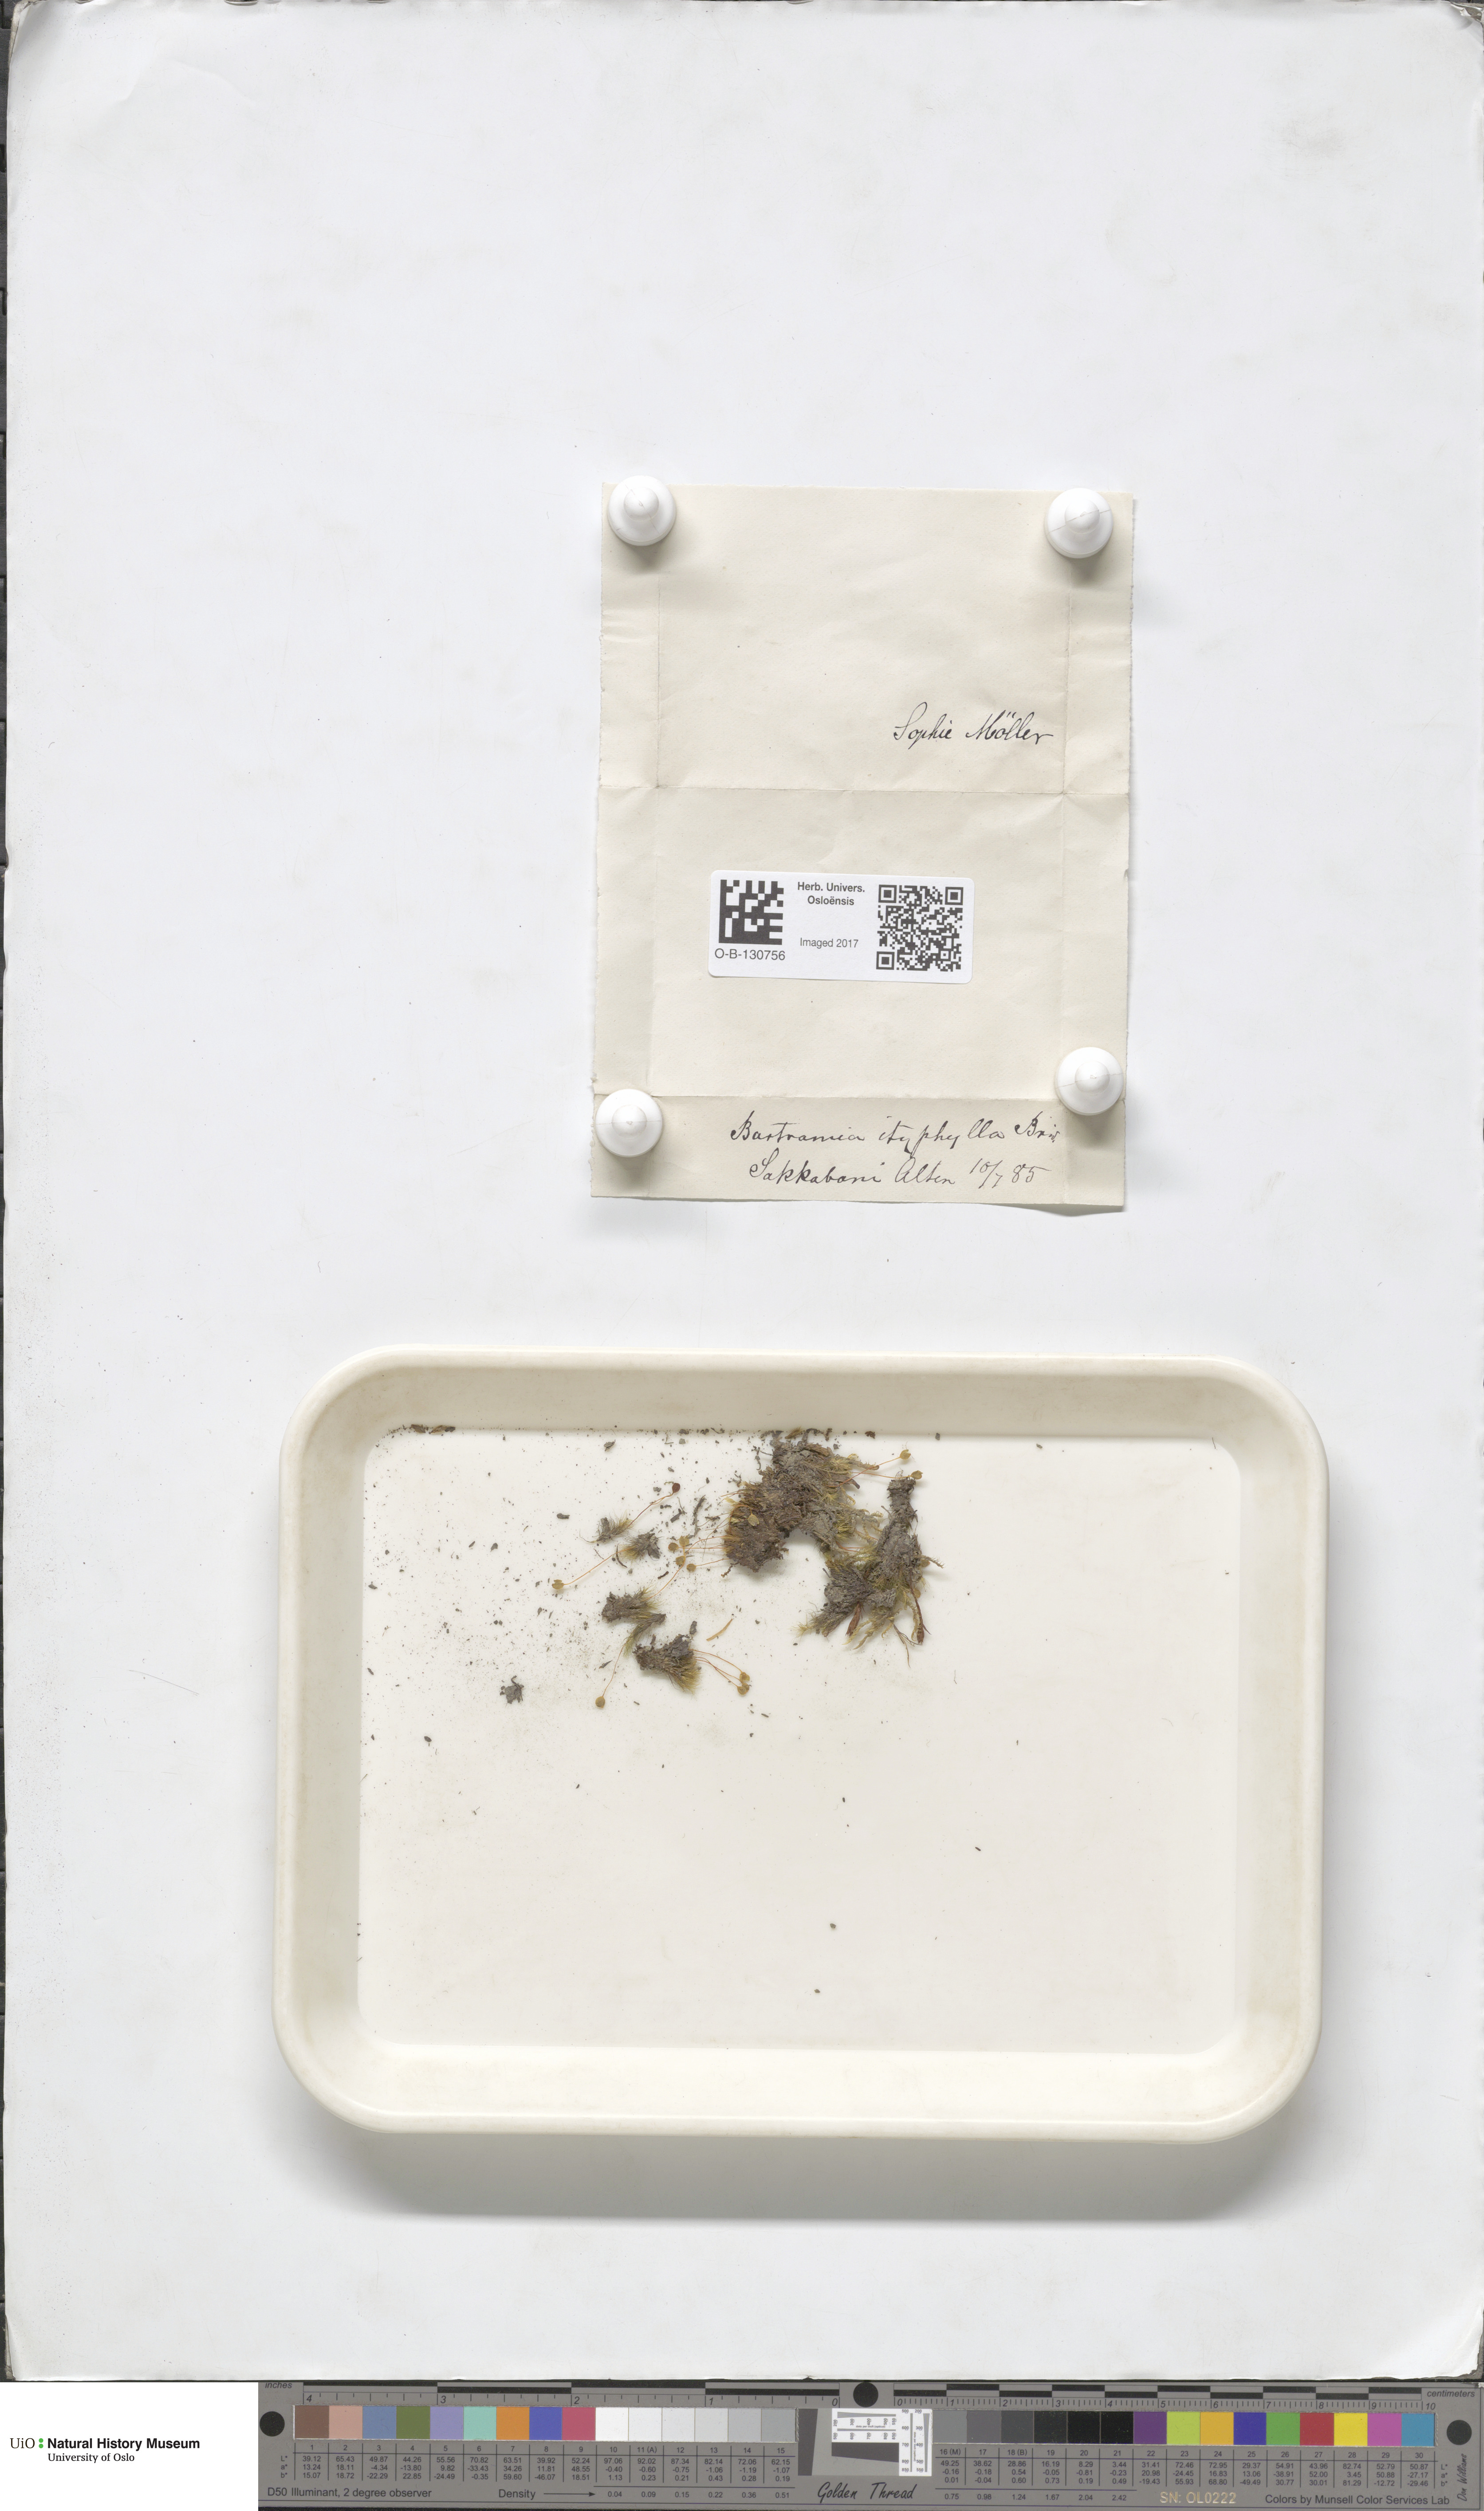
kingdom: Plantae
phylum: Bryophyta
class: Bryopsida
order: Bartramiales
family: Bartramiaceae
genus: Bartramia
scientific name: Bartramia ithyphylla
